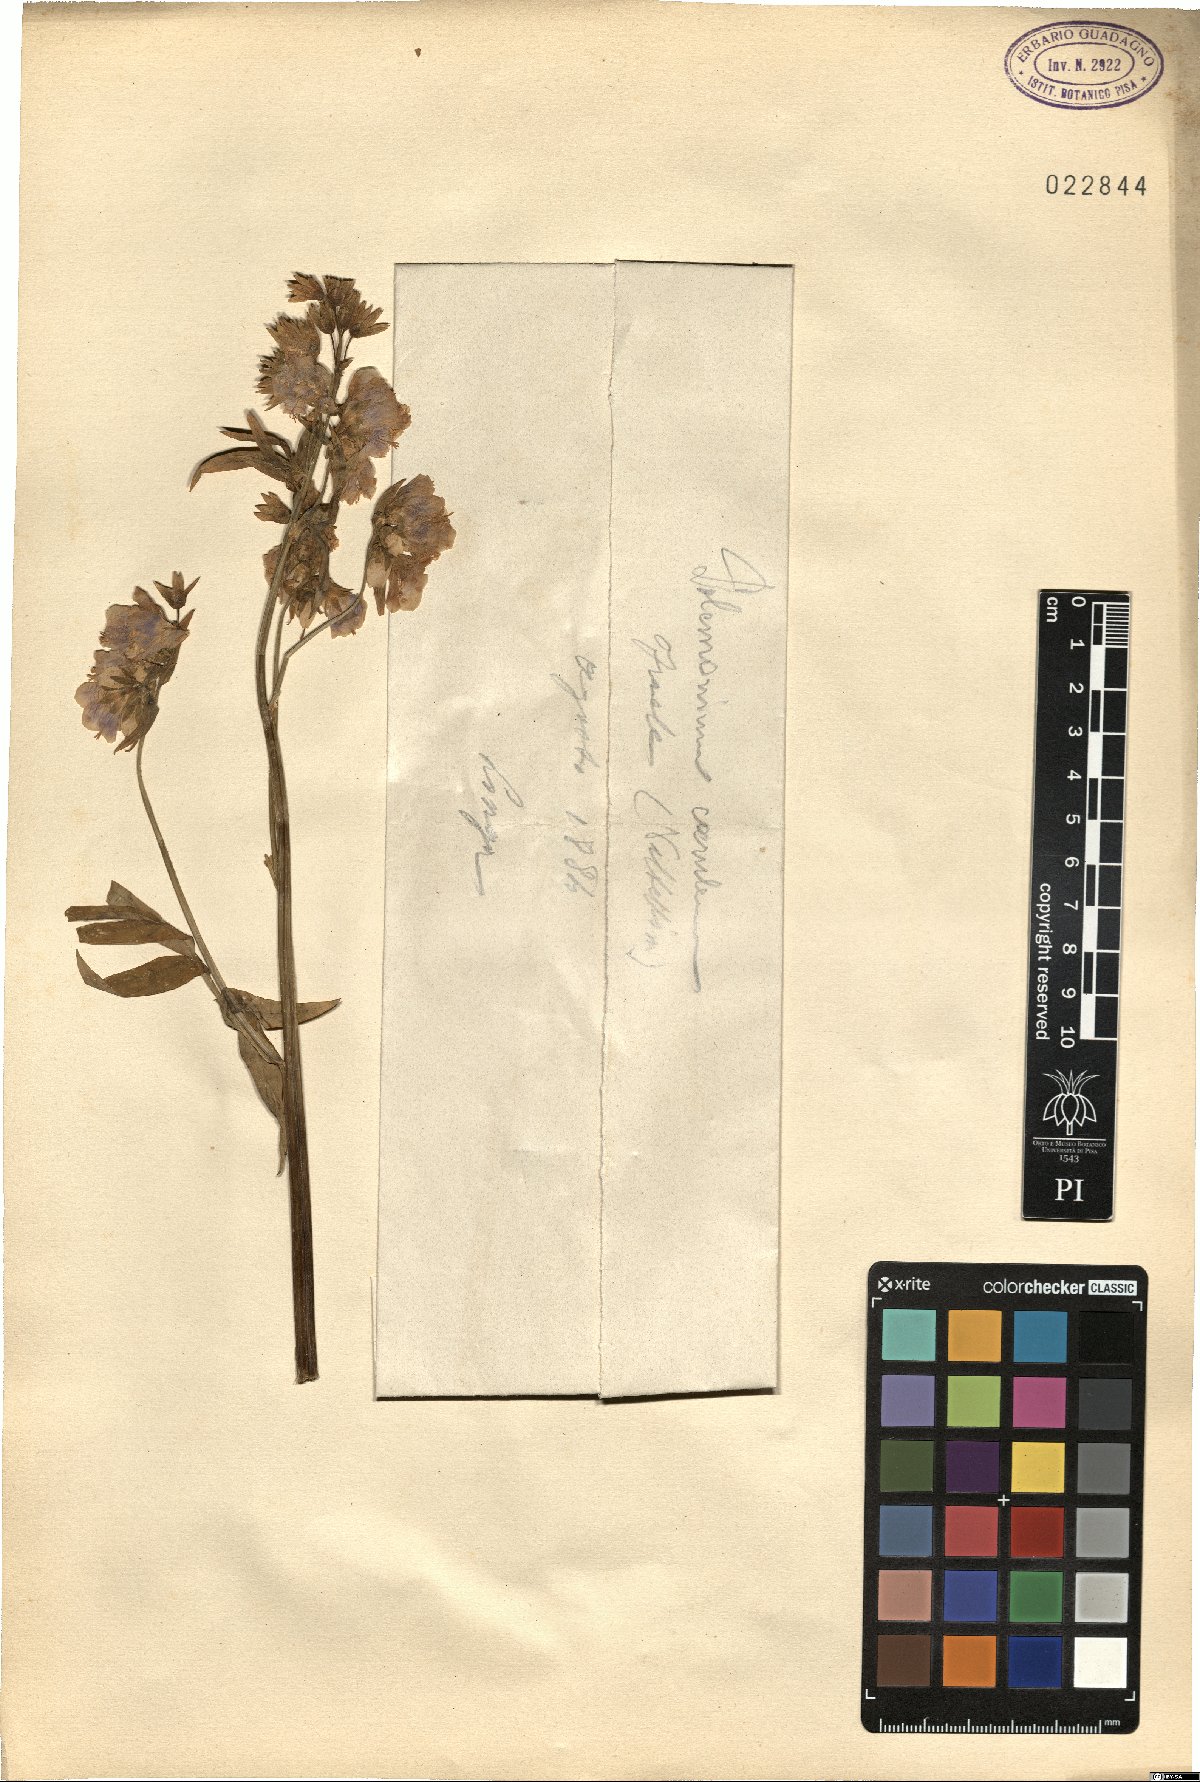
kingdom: Plantae
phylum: Tracheophyta
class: Magnoliopsida
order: Ericales
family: Polemoniaceae
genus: Polemonium
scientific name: Polemonium caeruleum
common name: Jacob's-ladder
